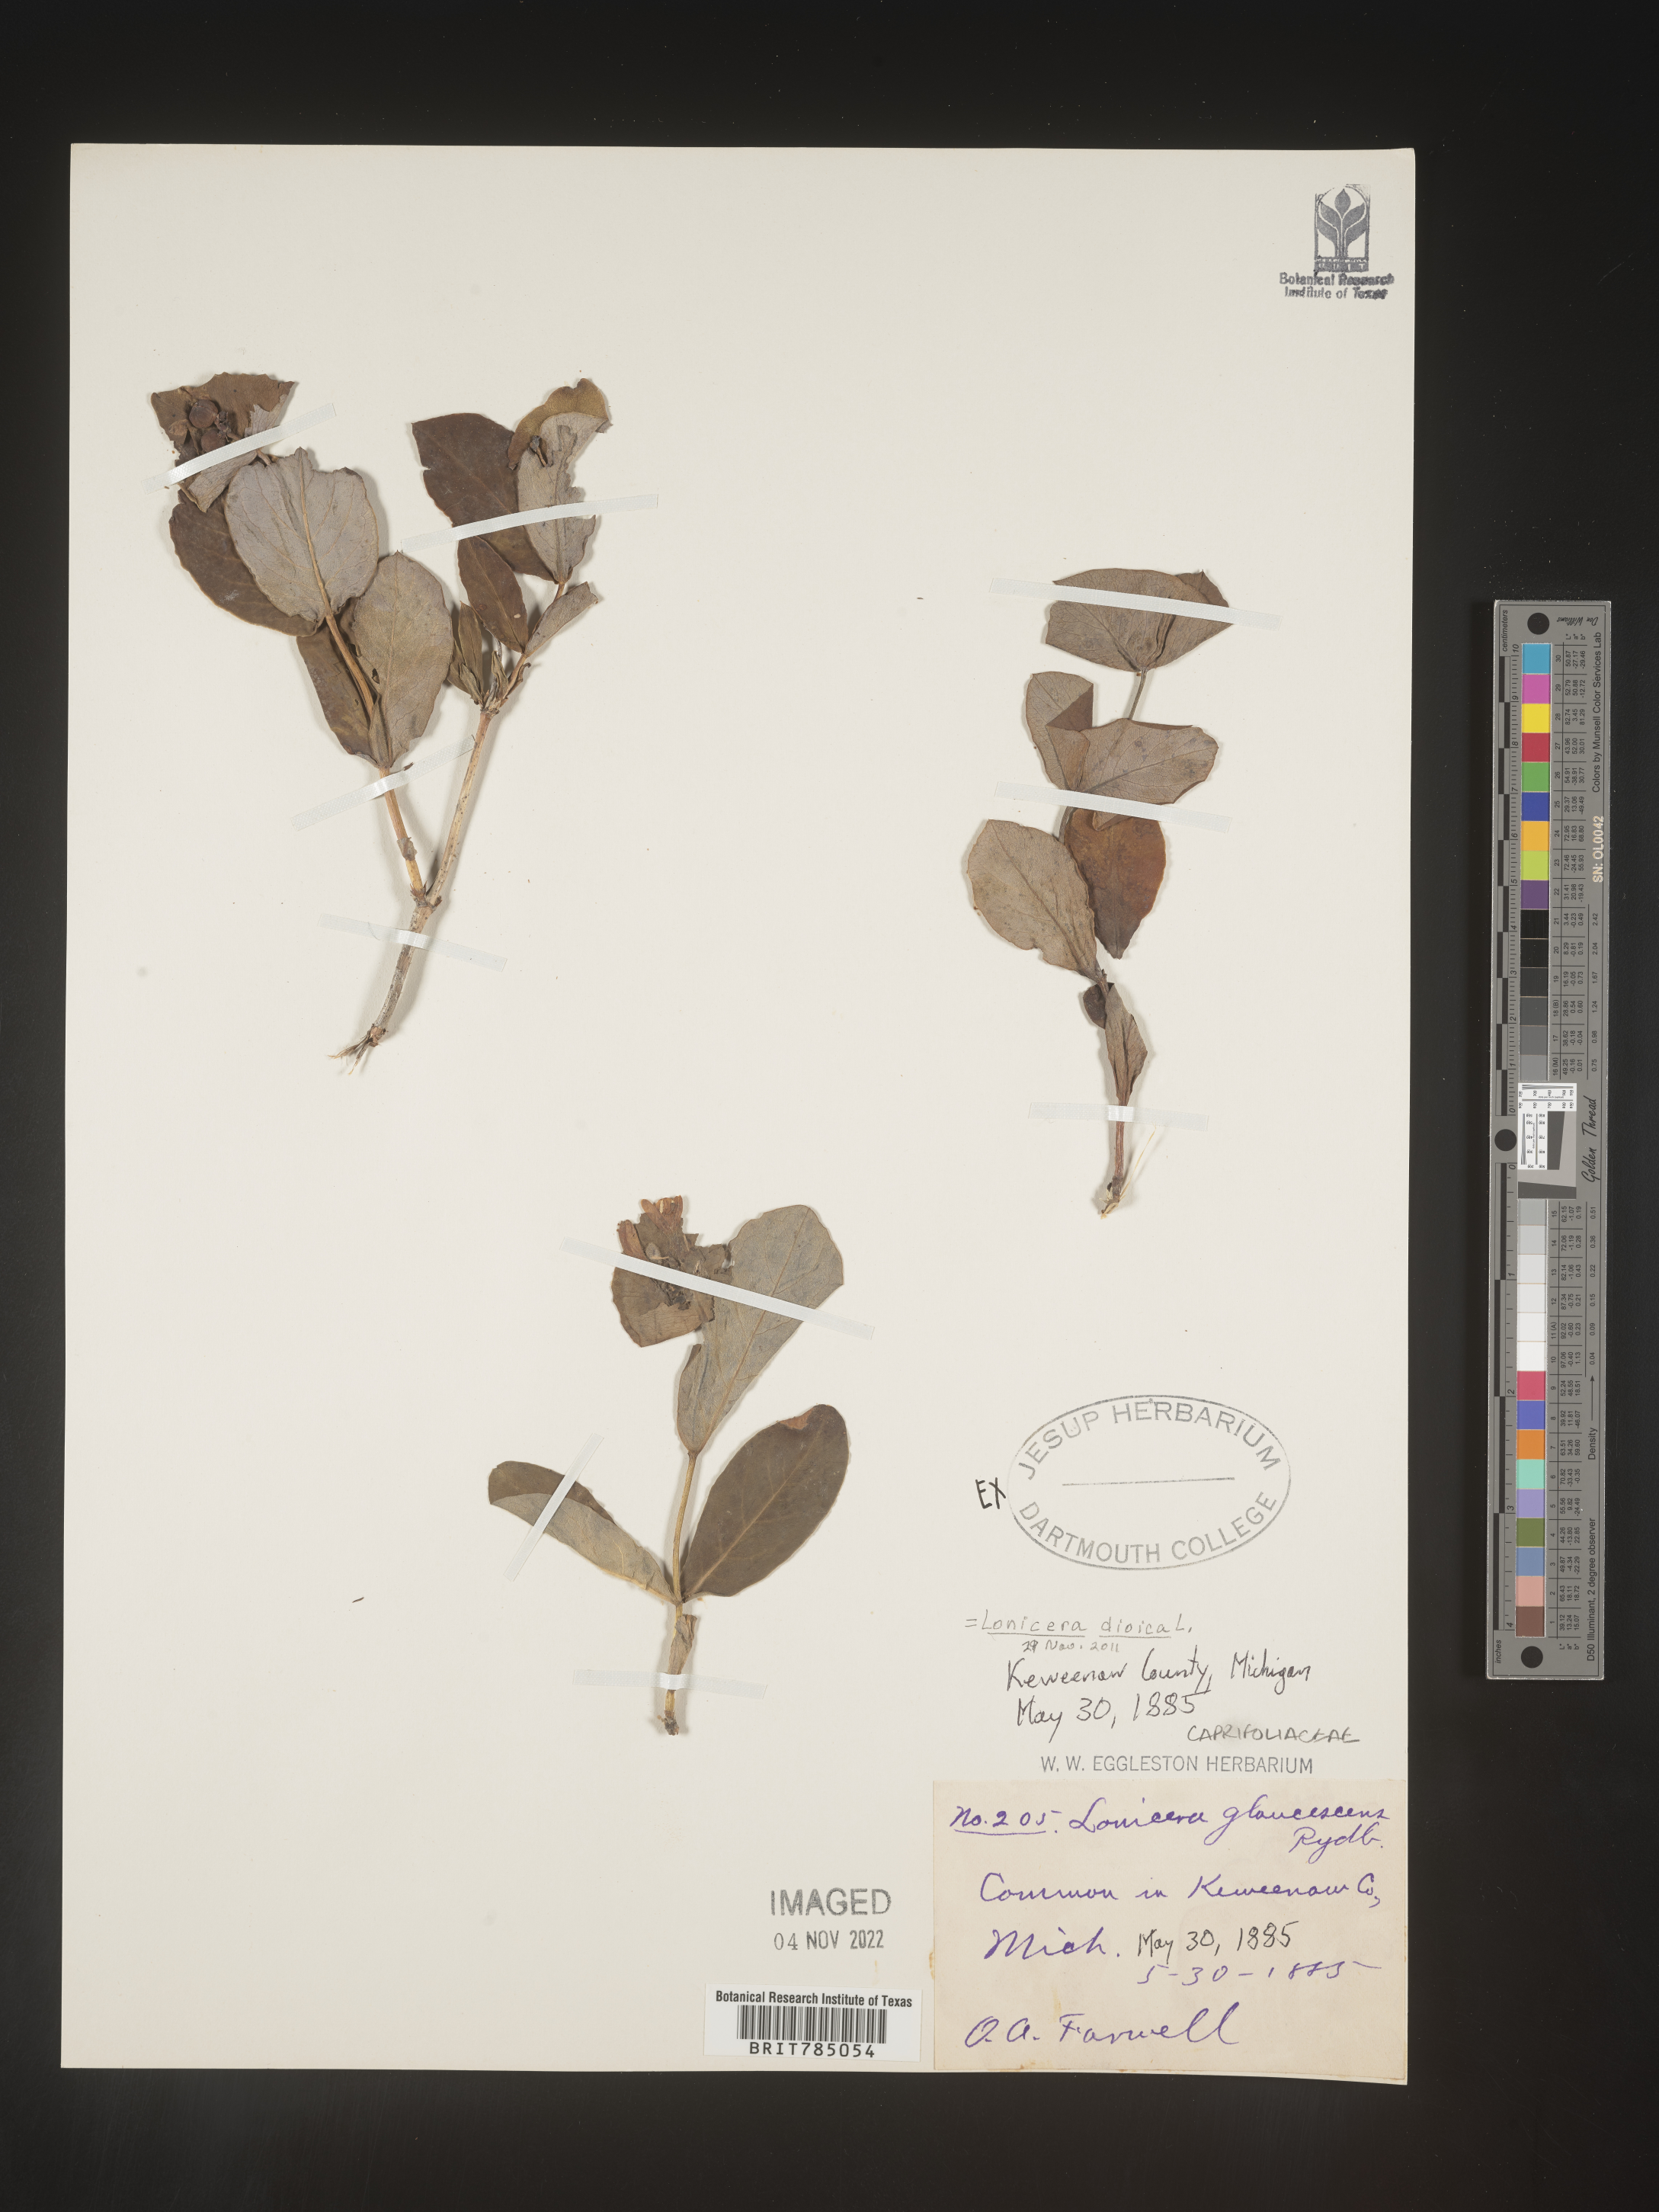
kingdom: Plantae
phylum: Tracheophyta
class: Magnoliopsida
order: Dipsacales
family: Caprifoliaceae
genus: Lonicera
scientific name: Lonicera dioica
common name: Limber honeysuckle
